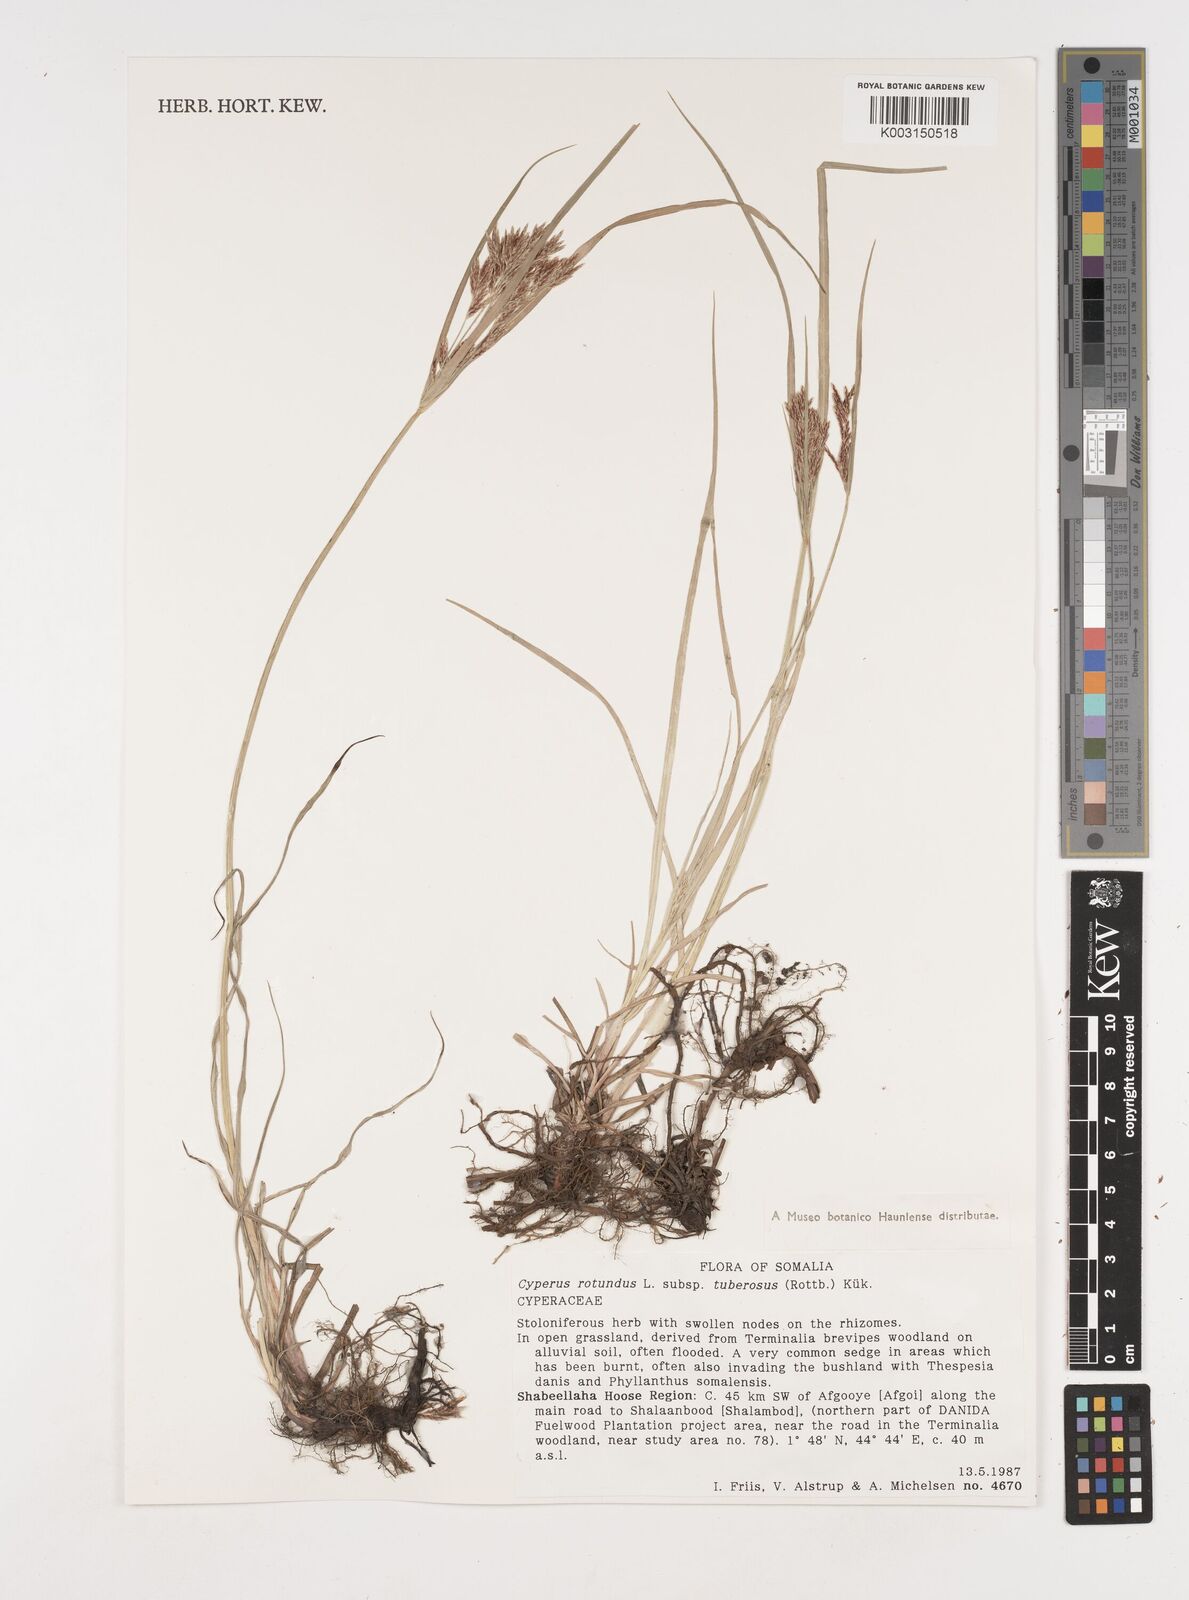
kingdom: Plantae
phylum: Tracheophyta
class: Liliopsida
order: Poales
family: Cyperaceae
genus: Cyperus
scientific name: Cyperus rotundus
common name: Nutgrass
